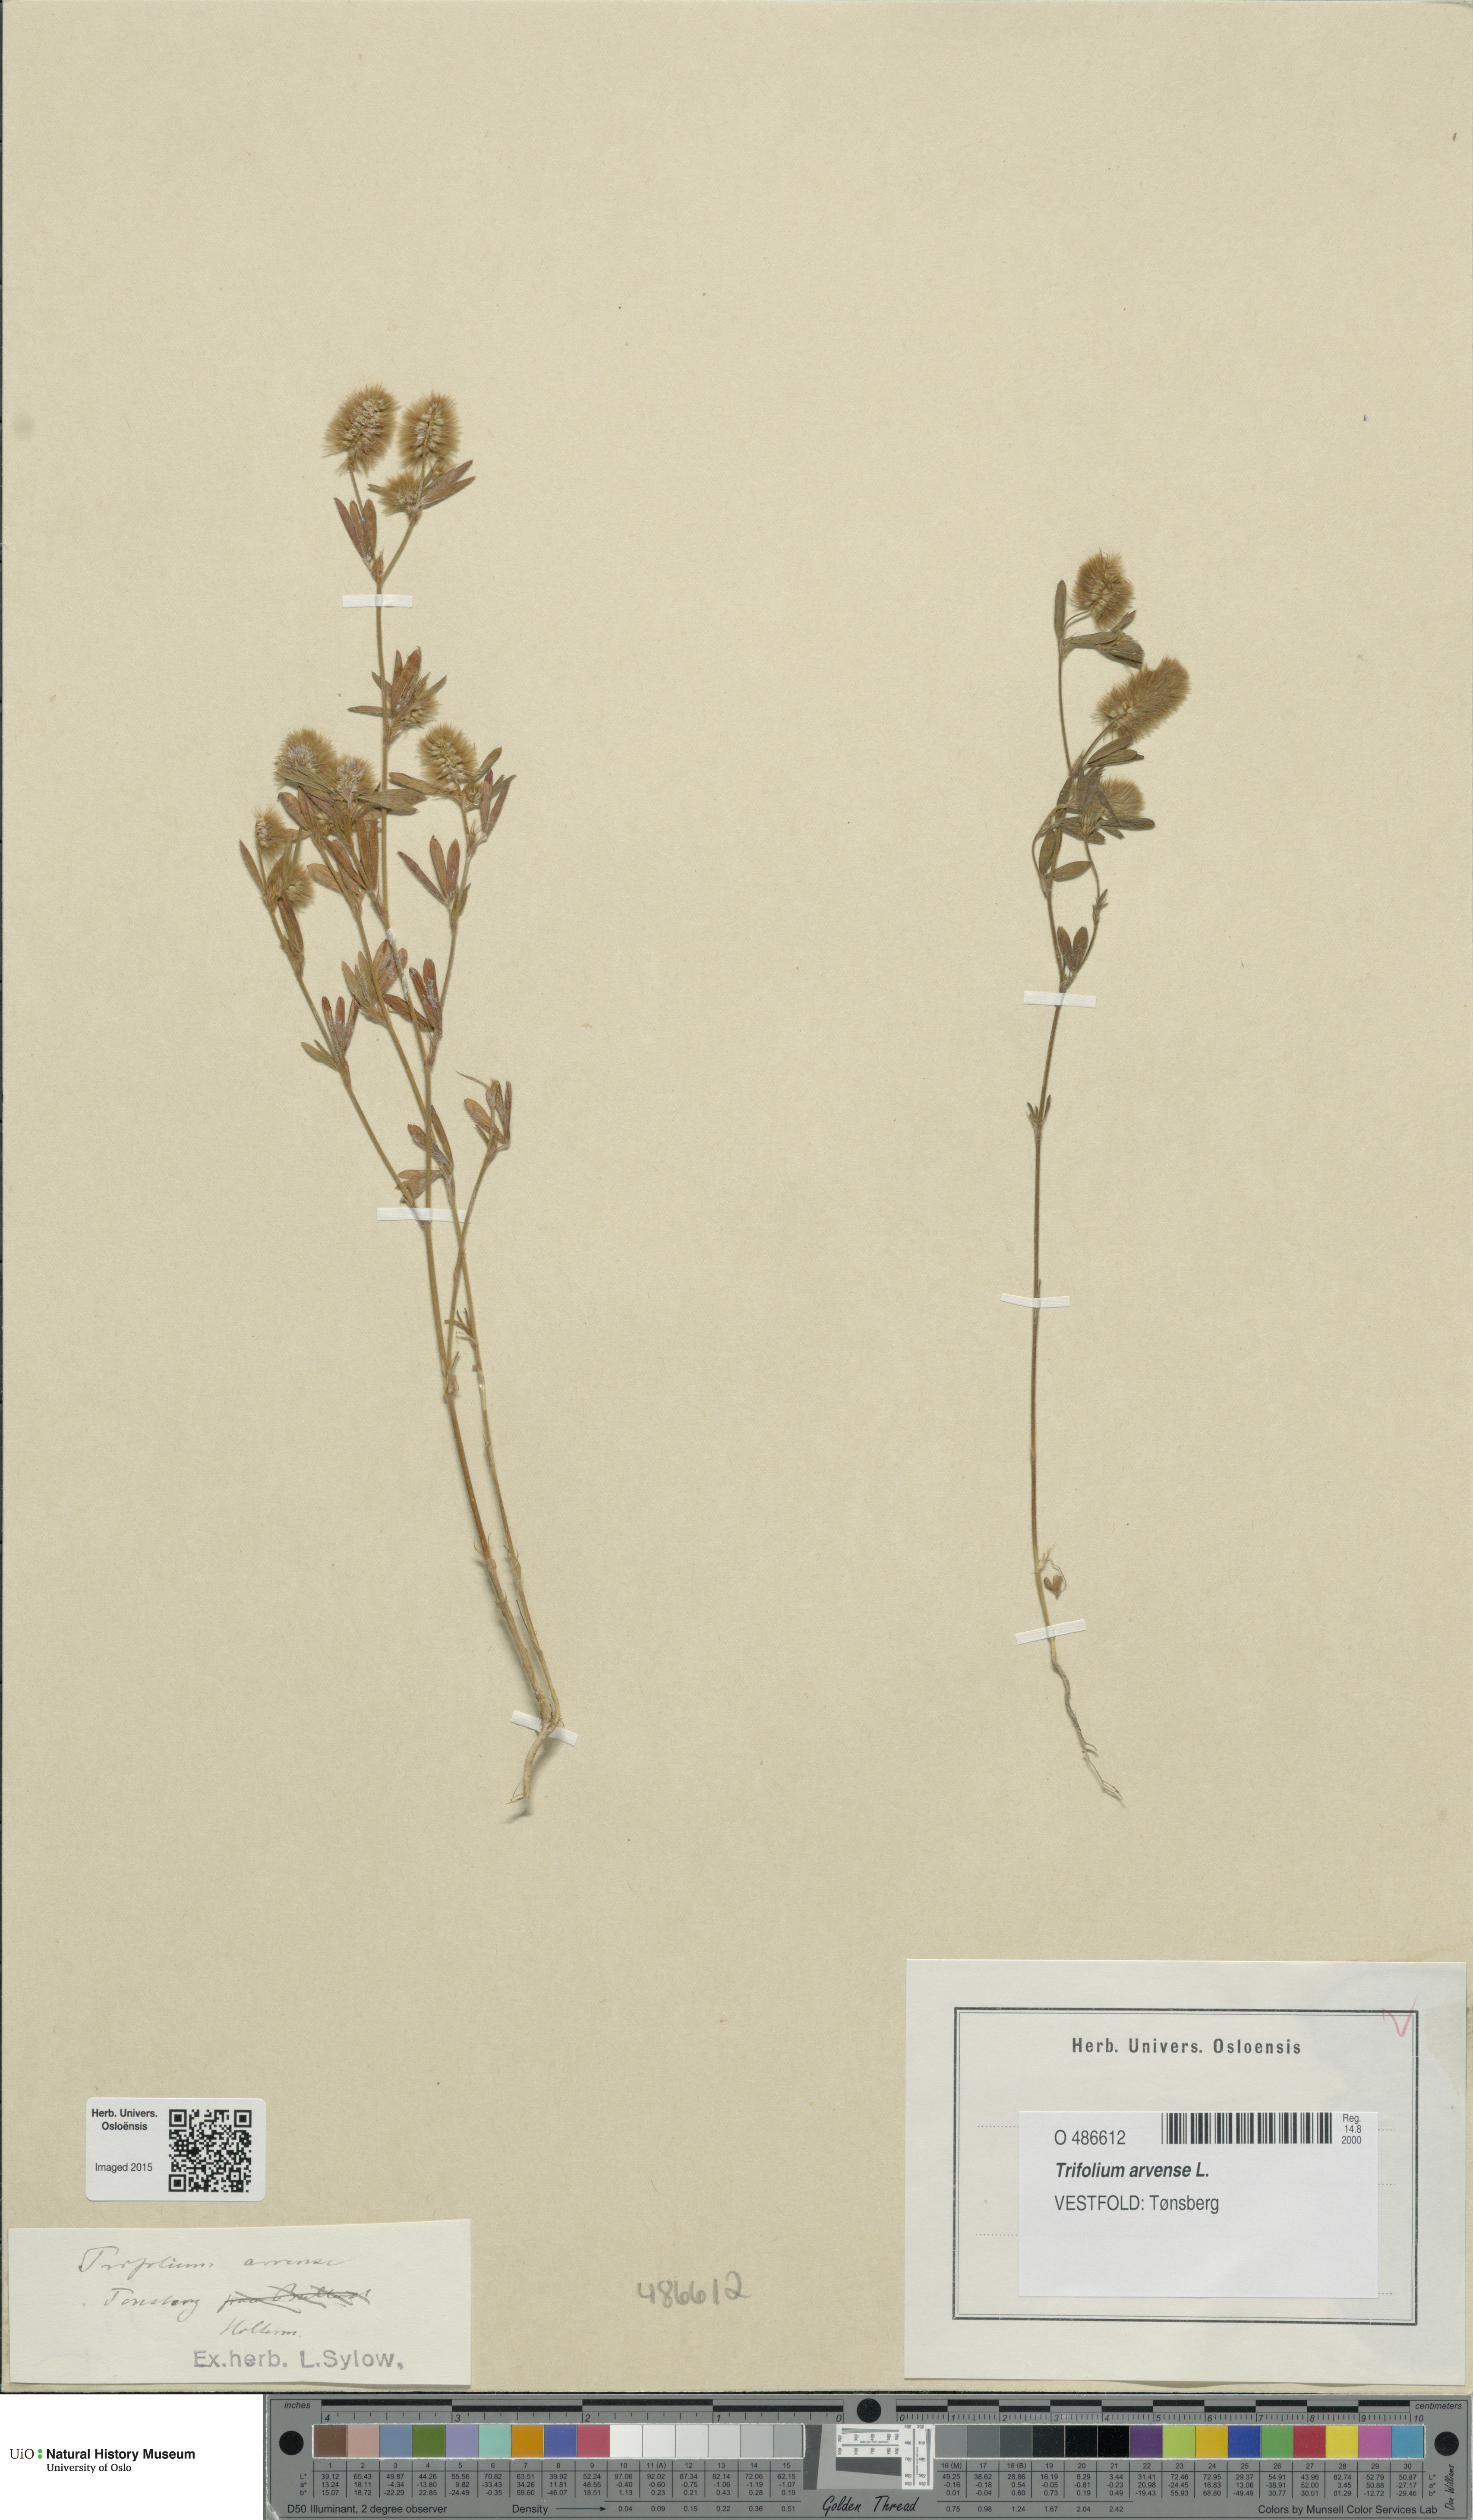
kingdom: Plantae
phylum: Tracheophyta
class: Magnoliopsida
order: Fabales
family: Fabaceae
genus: Trifolium
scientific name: Trifolium arvense
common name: Hare's-foot clover
